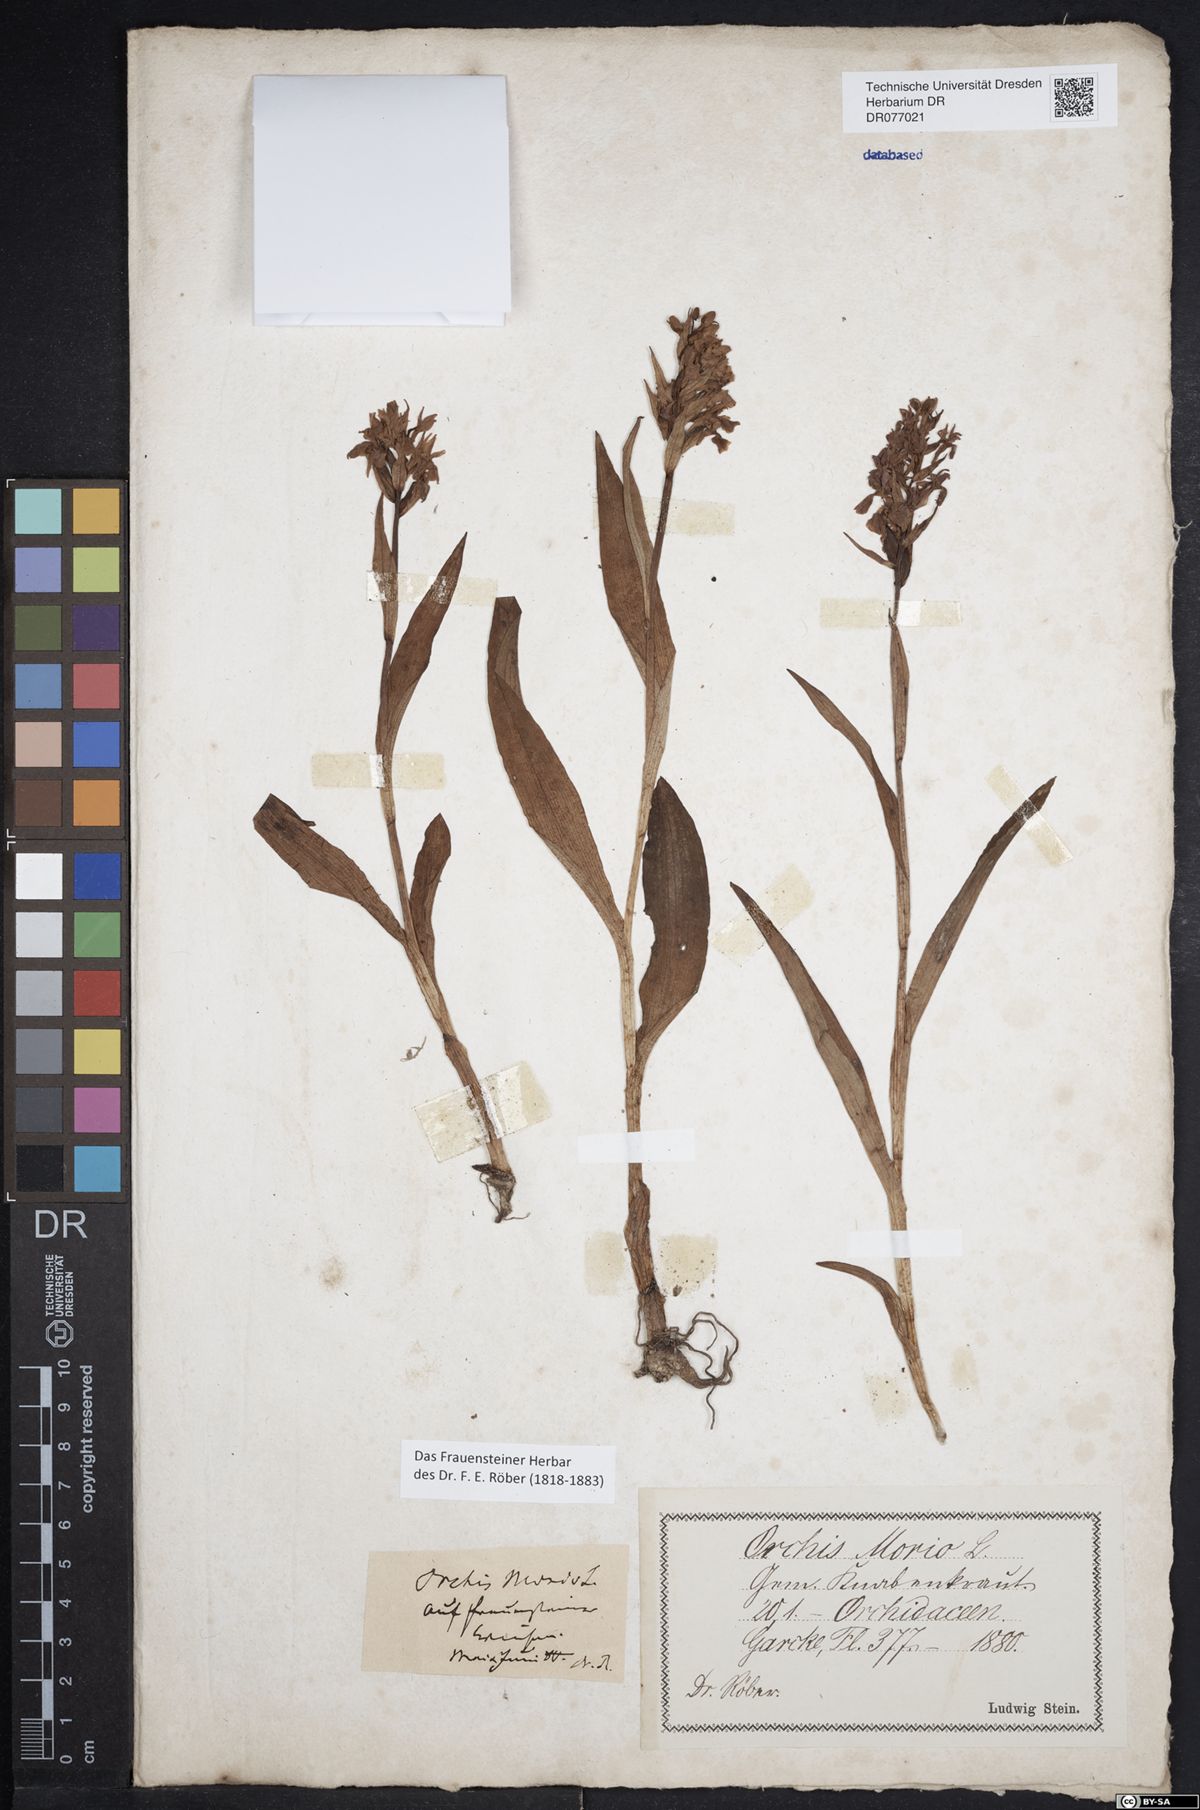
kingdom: Plantae
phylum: Tracheophyta
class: Liliopsida
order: Asparagales
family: Orchidaceae
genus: Dactylorhiza
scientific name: Dactylorhiza incarnata
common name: Early marsh-orchid
